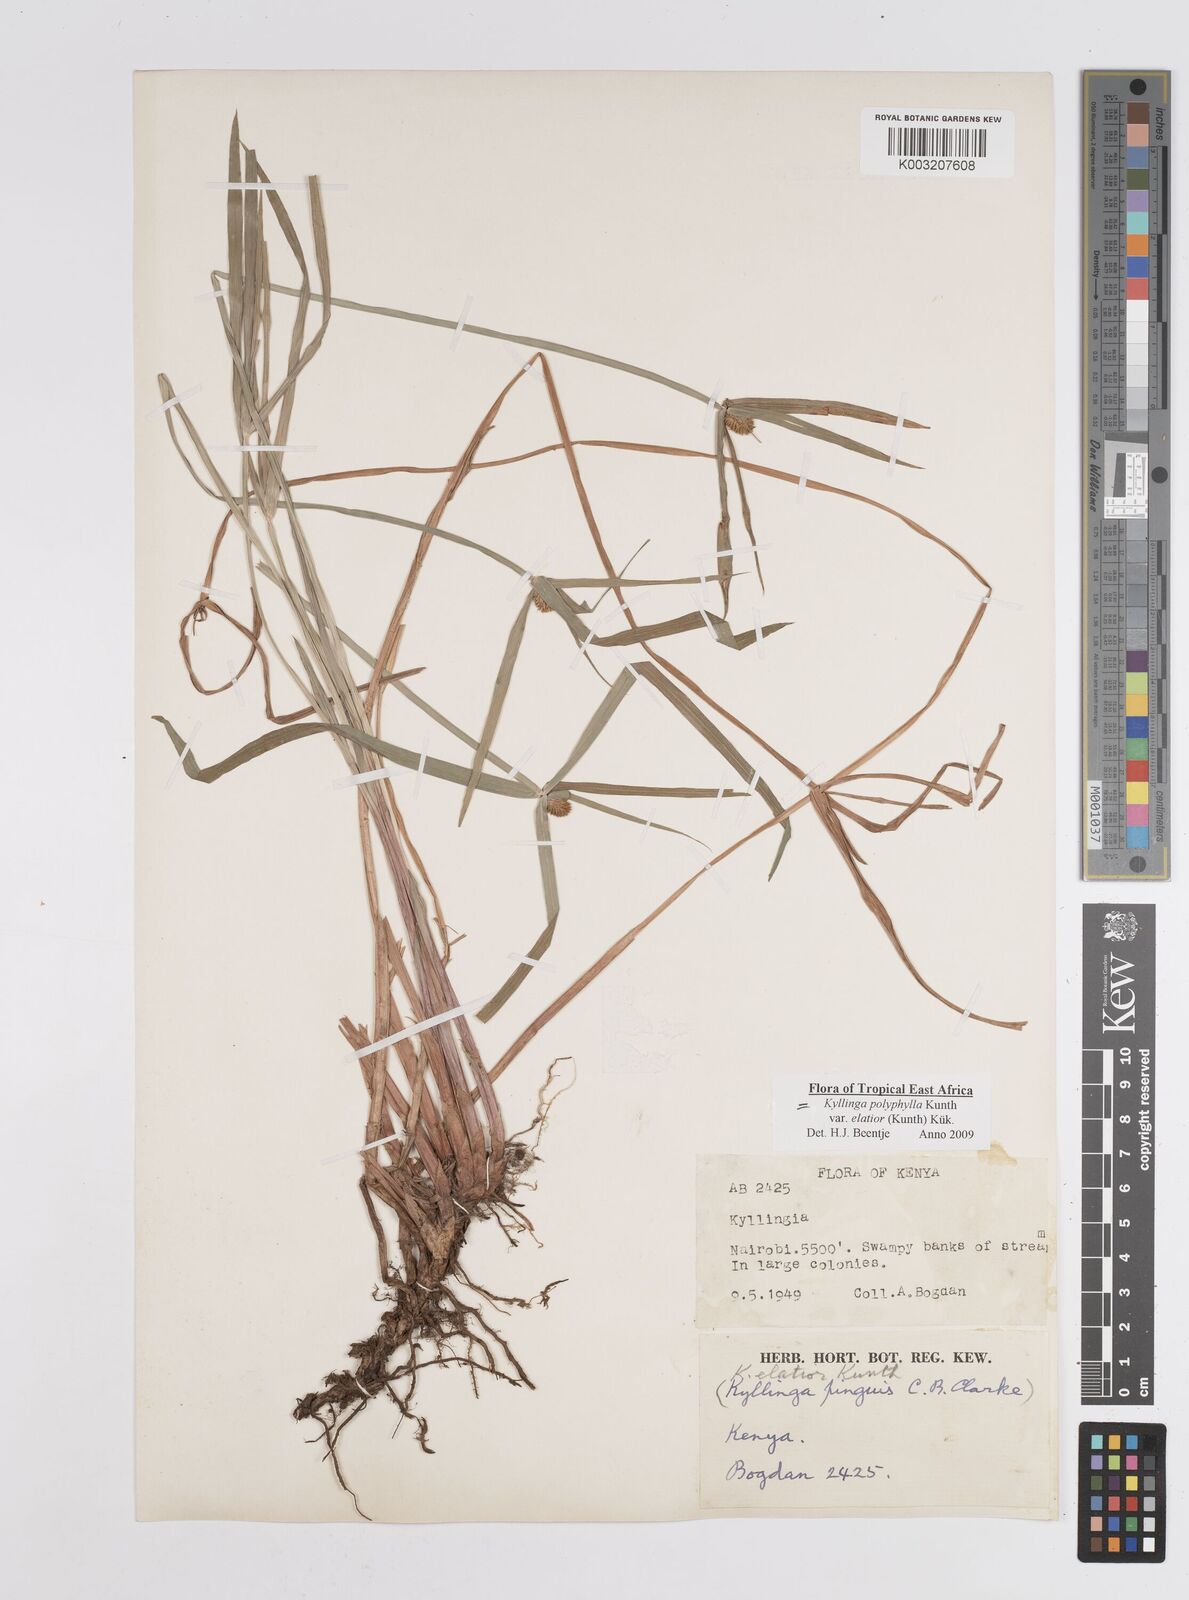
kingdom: Plantae
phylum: Tracheophyta
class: Liliopsida
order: Poales
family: Cyperaceae
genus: Cyperus
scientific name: Cyperus
